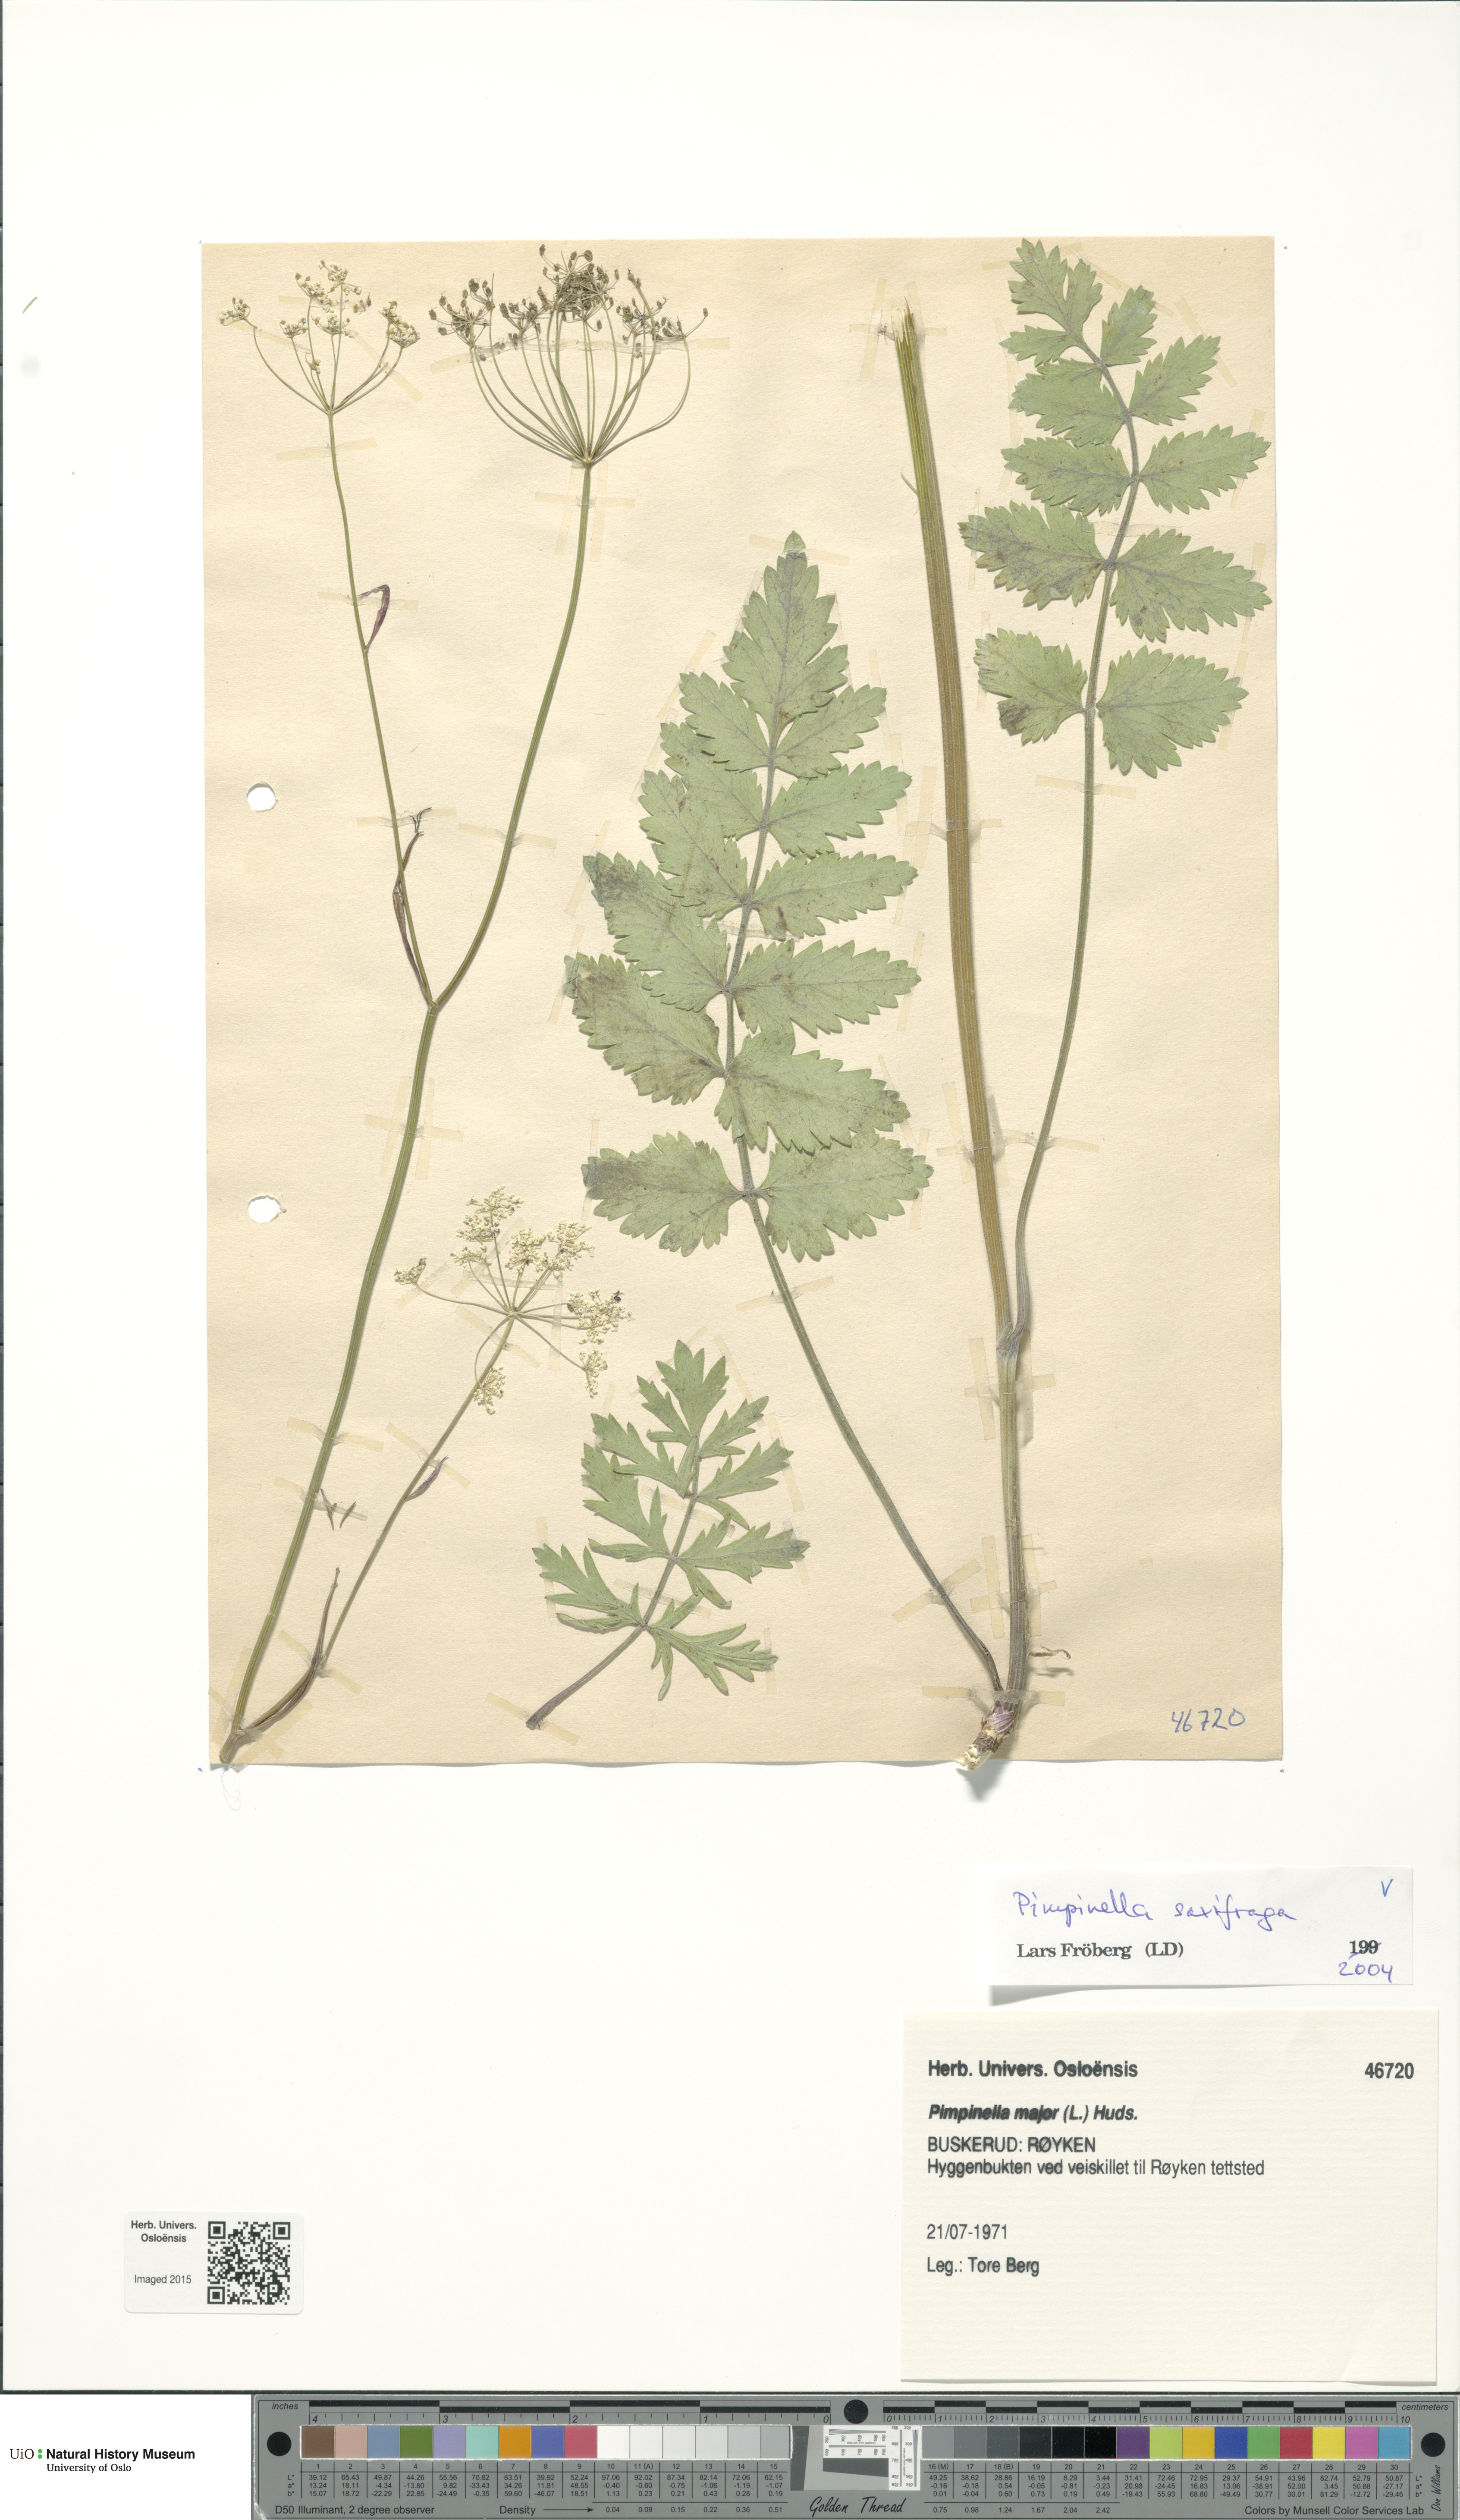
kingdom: Plantae
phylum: Tracheophyta
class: Magnoliopsida
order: Apiales
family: Apiaceae
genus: Pimpinella
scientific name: Pimpinella saxifraga
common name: Burnet-saxifrage
